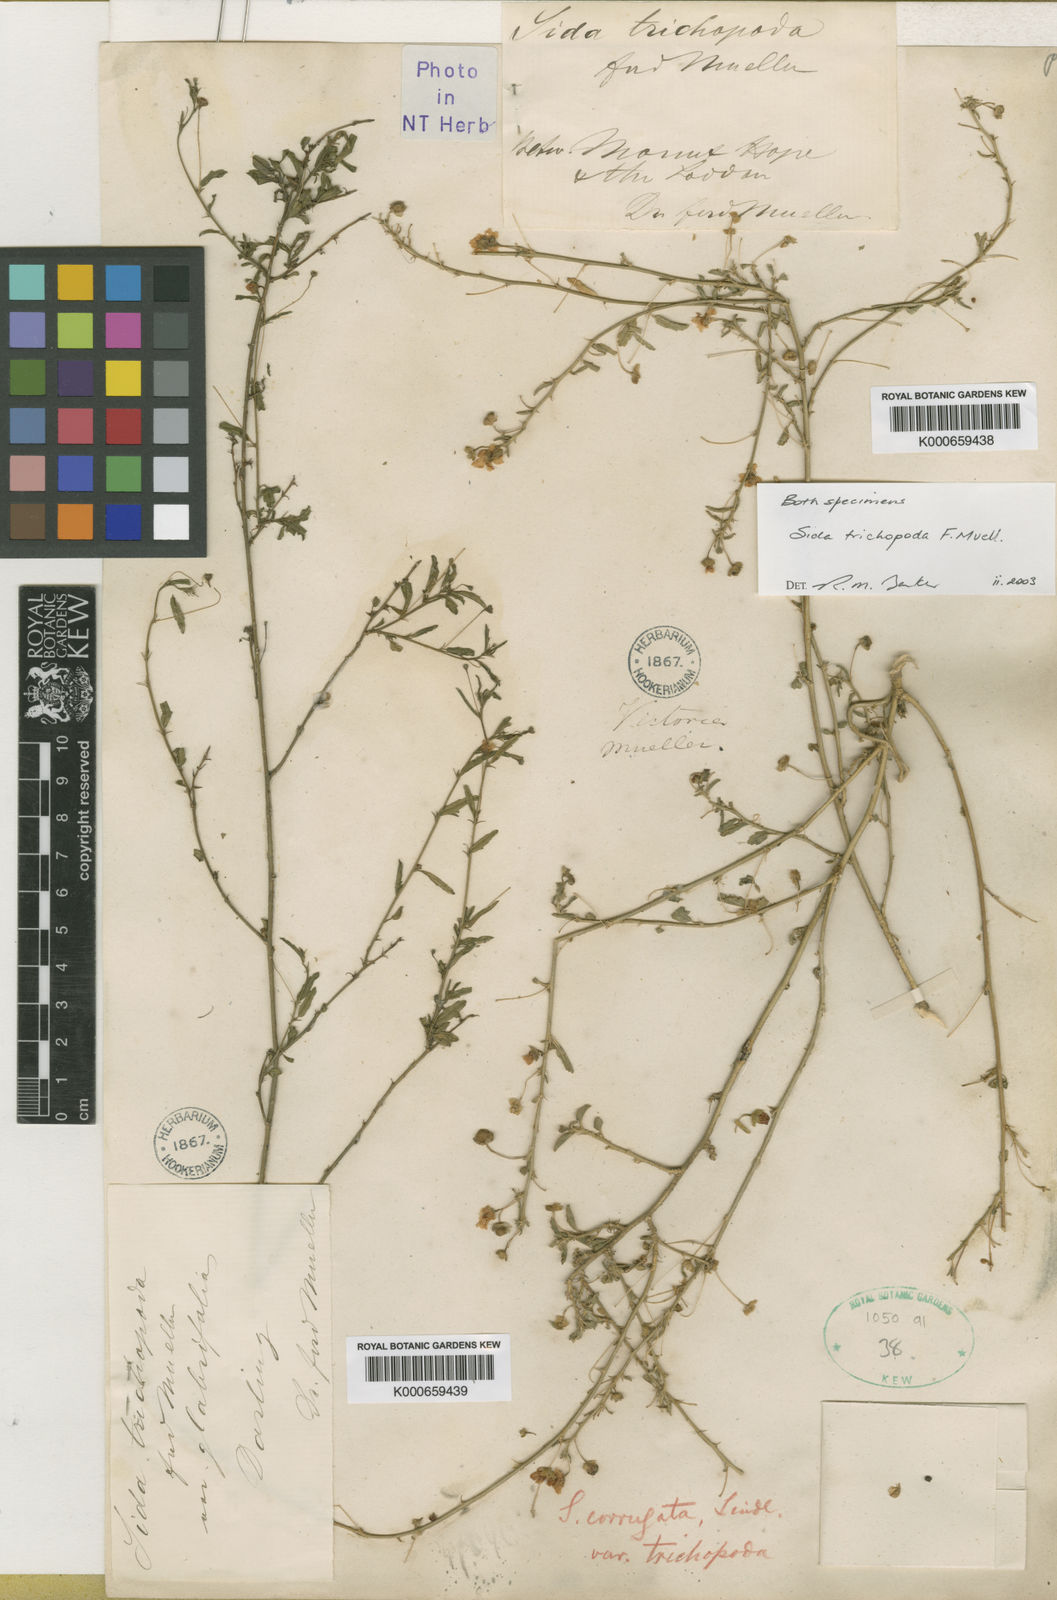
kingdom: Plantae
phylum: Tracheophyta
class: Magnoliopsida
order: Malvales
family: Malvaceae
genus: Sida
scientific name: Sida trichopoda
